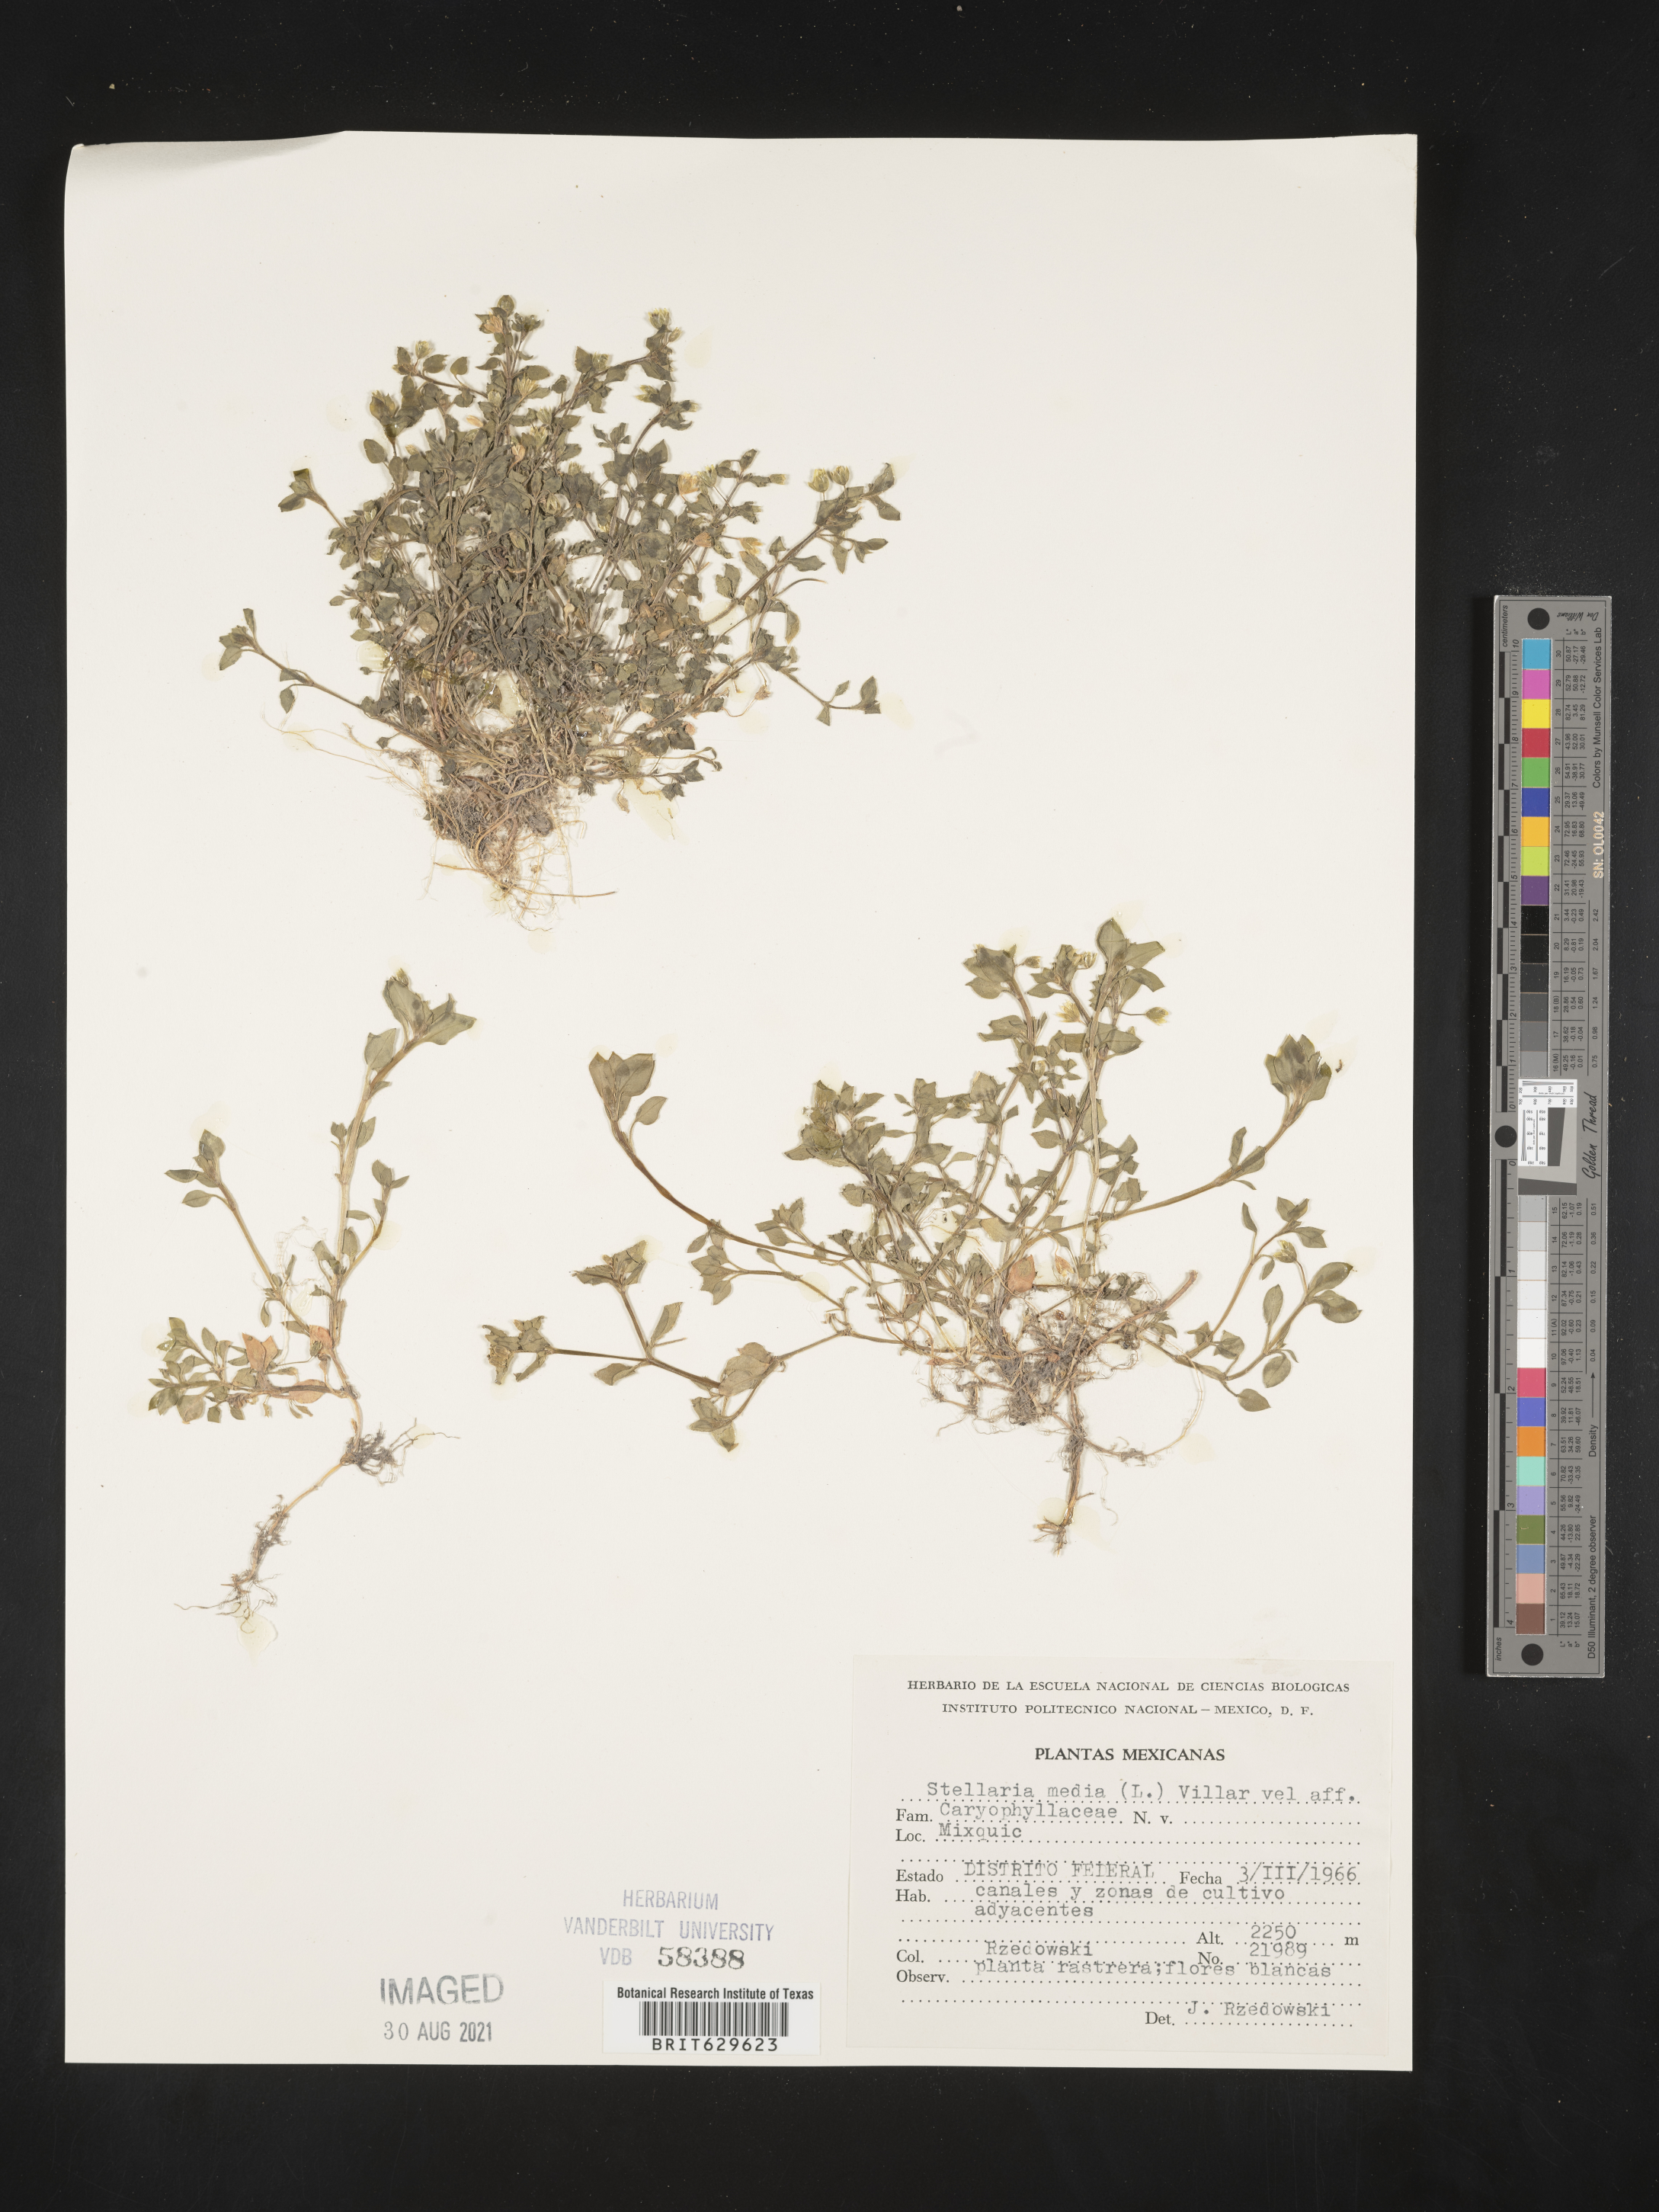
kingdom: Plantae
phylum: Tracheophyta
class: Magnoliopsida
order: Caryophyllales
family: Caryophyllaceae
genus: Stellaria
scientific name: Stellaria
